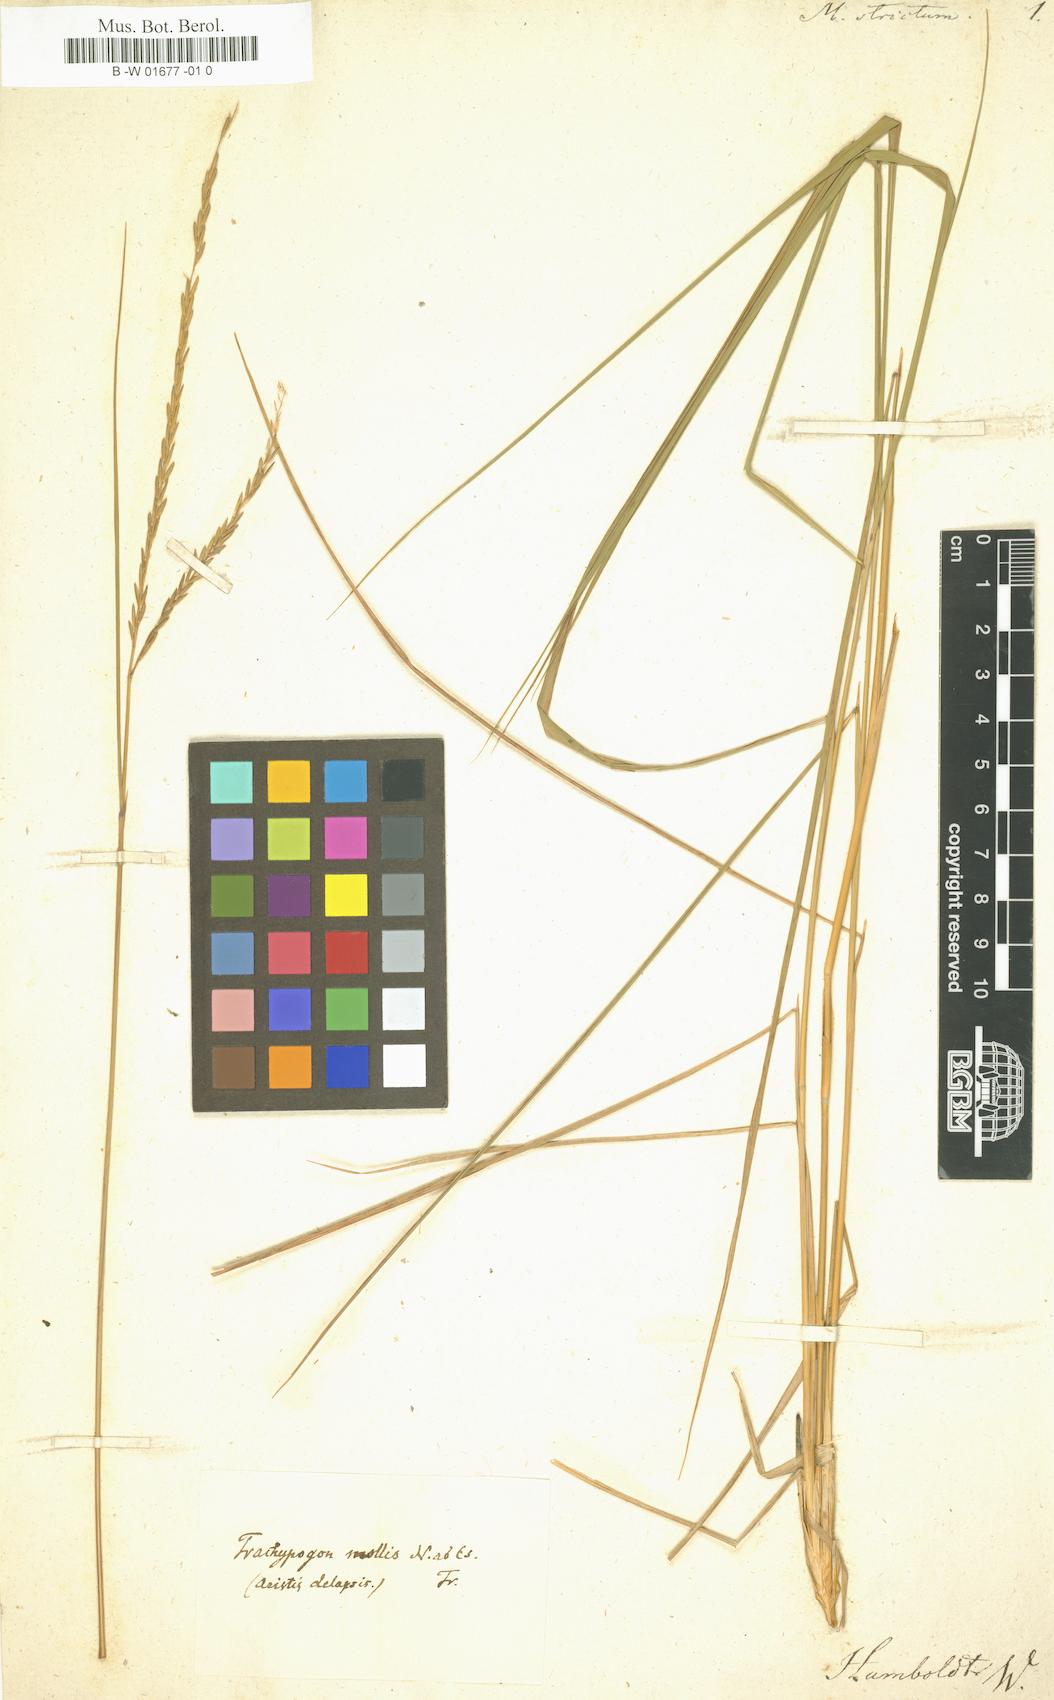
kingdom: Plantae
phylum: Tracheophyta
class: Liliopsida
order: Poales
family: Poaceae
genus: Trachypogon
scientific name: Trachypogon spicatus
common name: Crinkle-awn
